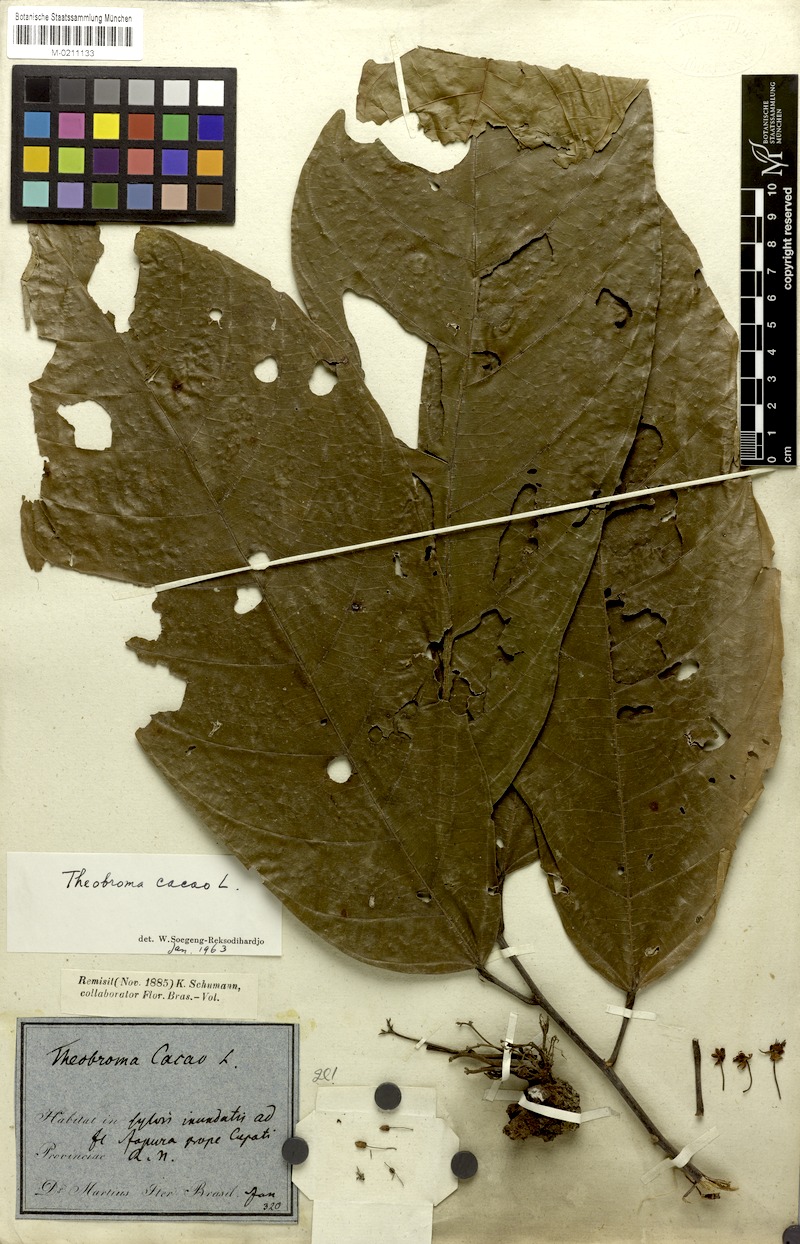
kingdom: Plantae
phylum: Tracheophyta
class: Magnoliopsida
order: Malvales
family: Malvaceae
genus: Theobroma
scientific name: Theobroma cacao
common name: Cocoa
